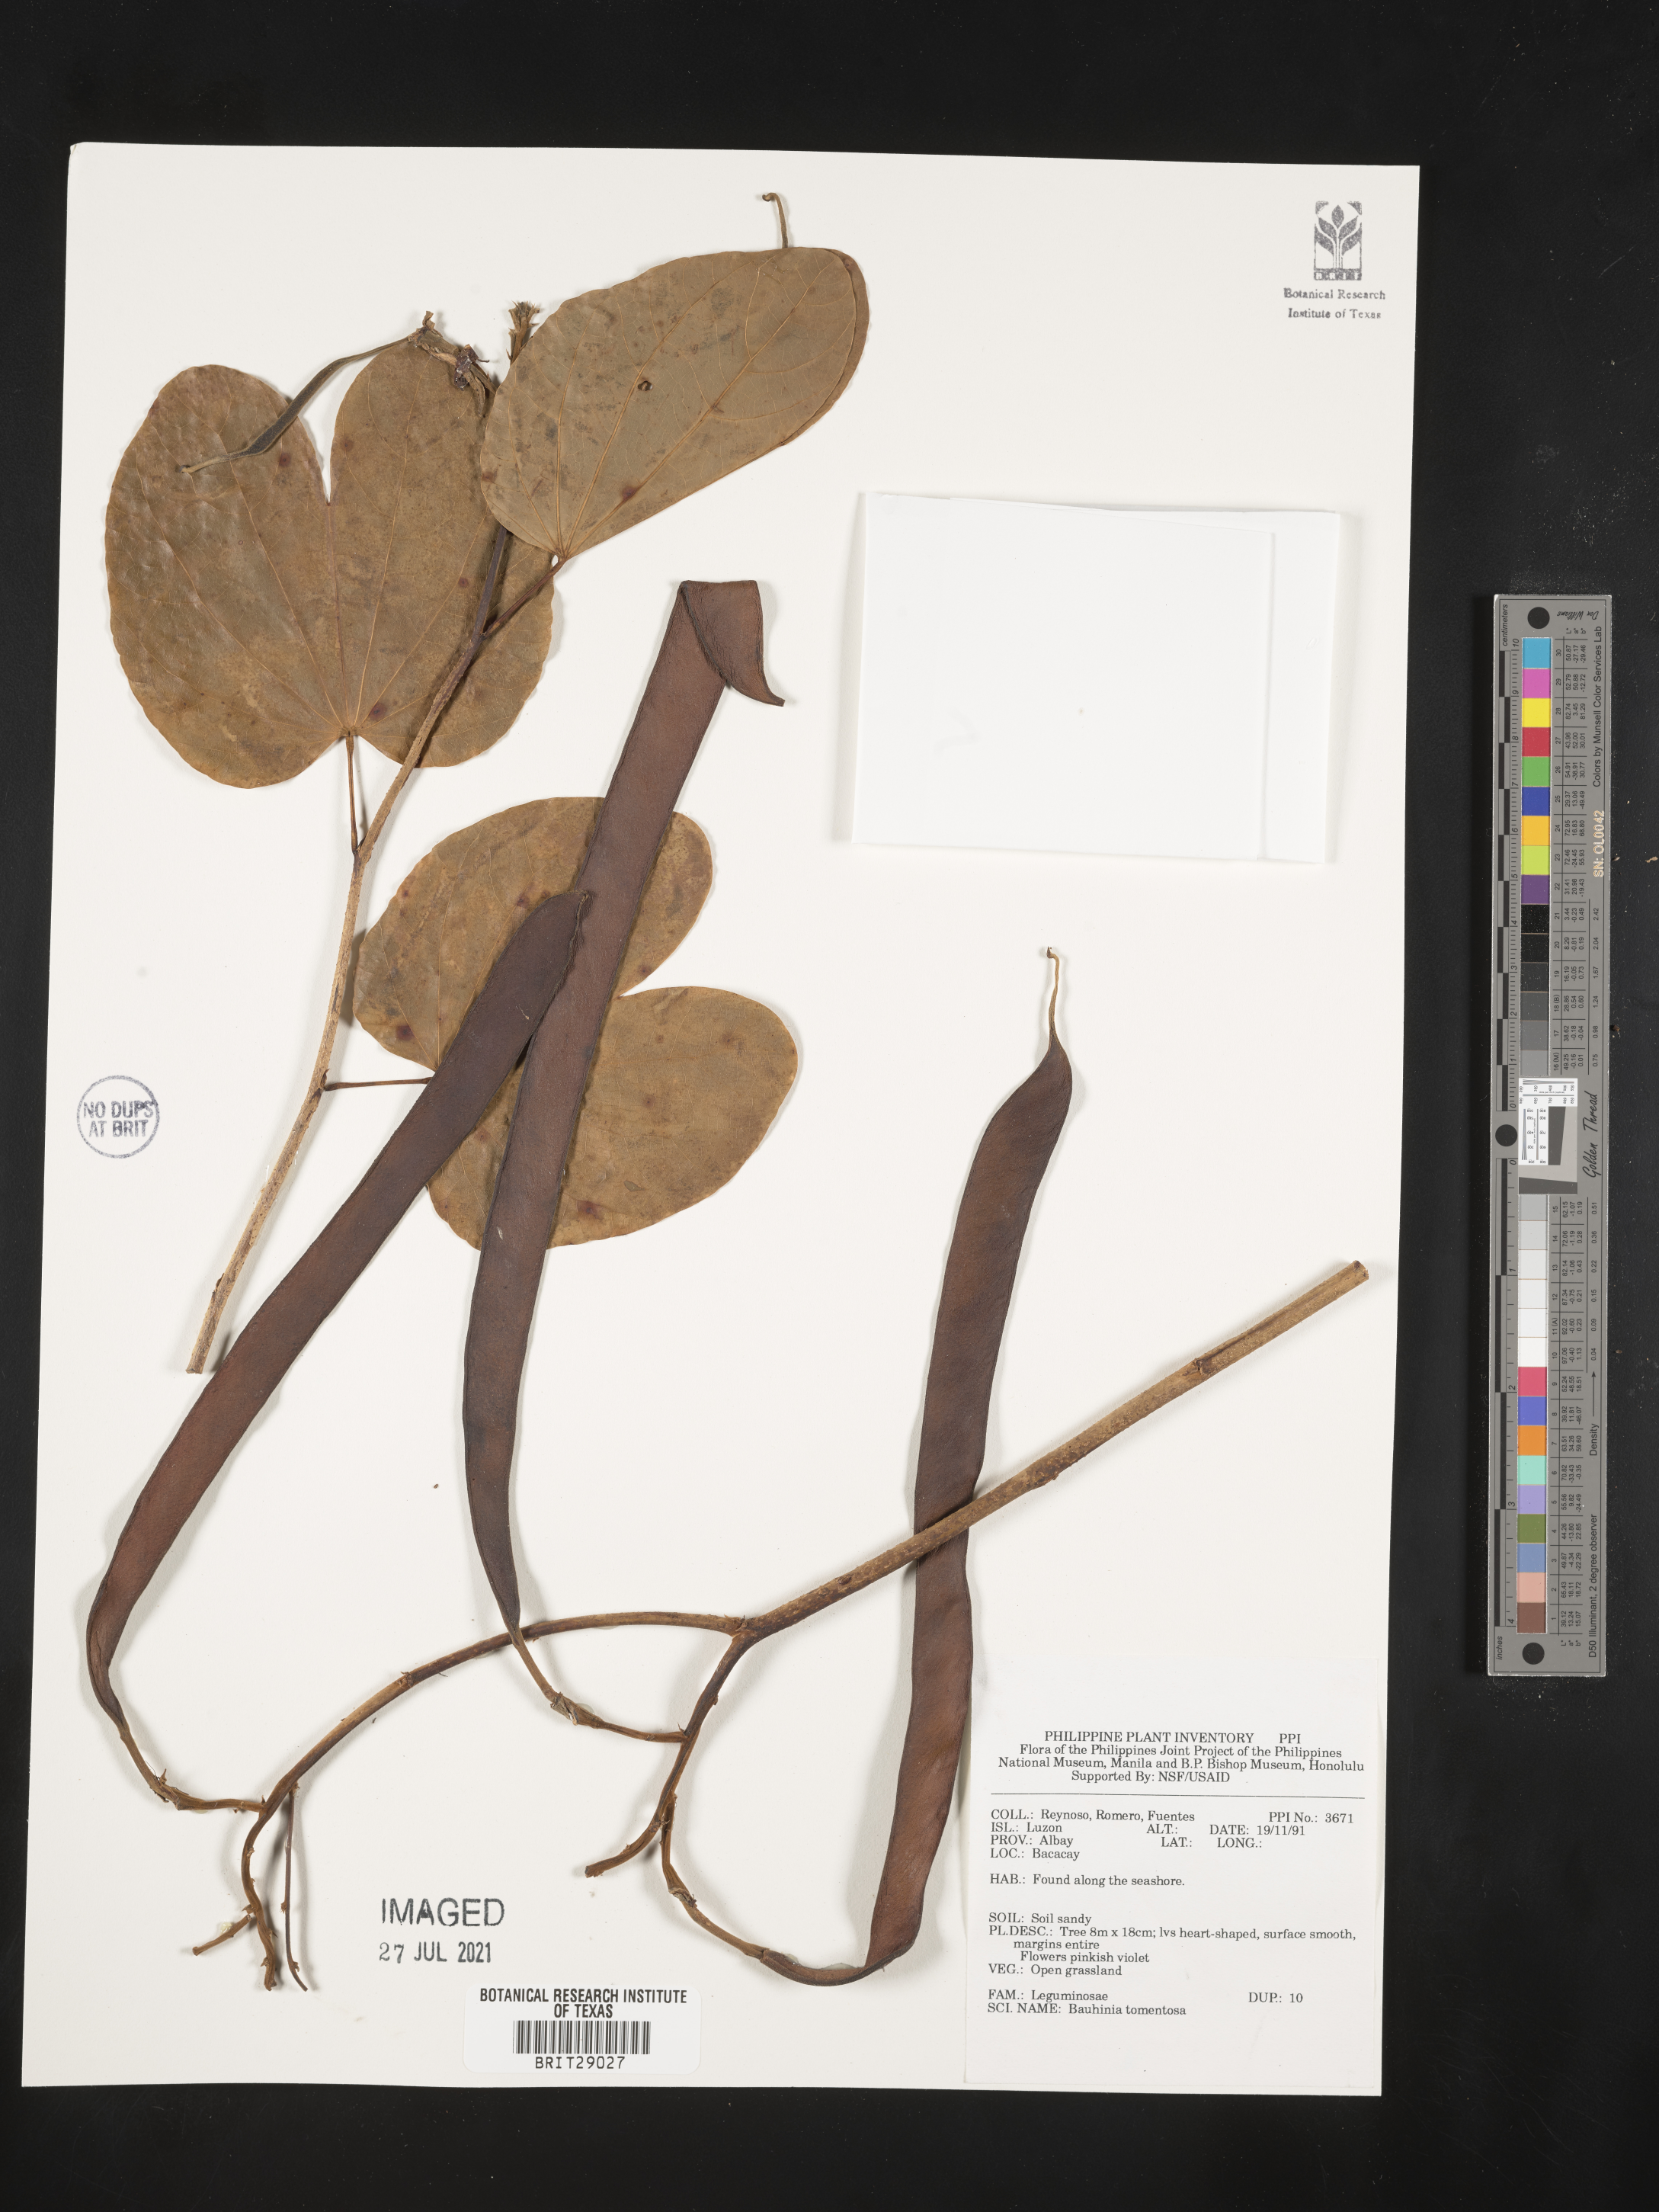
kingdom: Plantae
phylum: Tracheophyta
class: Magnoliopsida
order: Fabales
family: Fabaceae
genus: Bauhinia
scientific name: Bauhinia tomentosa
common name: Bell bauhinia
